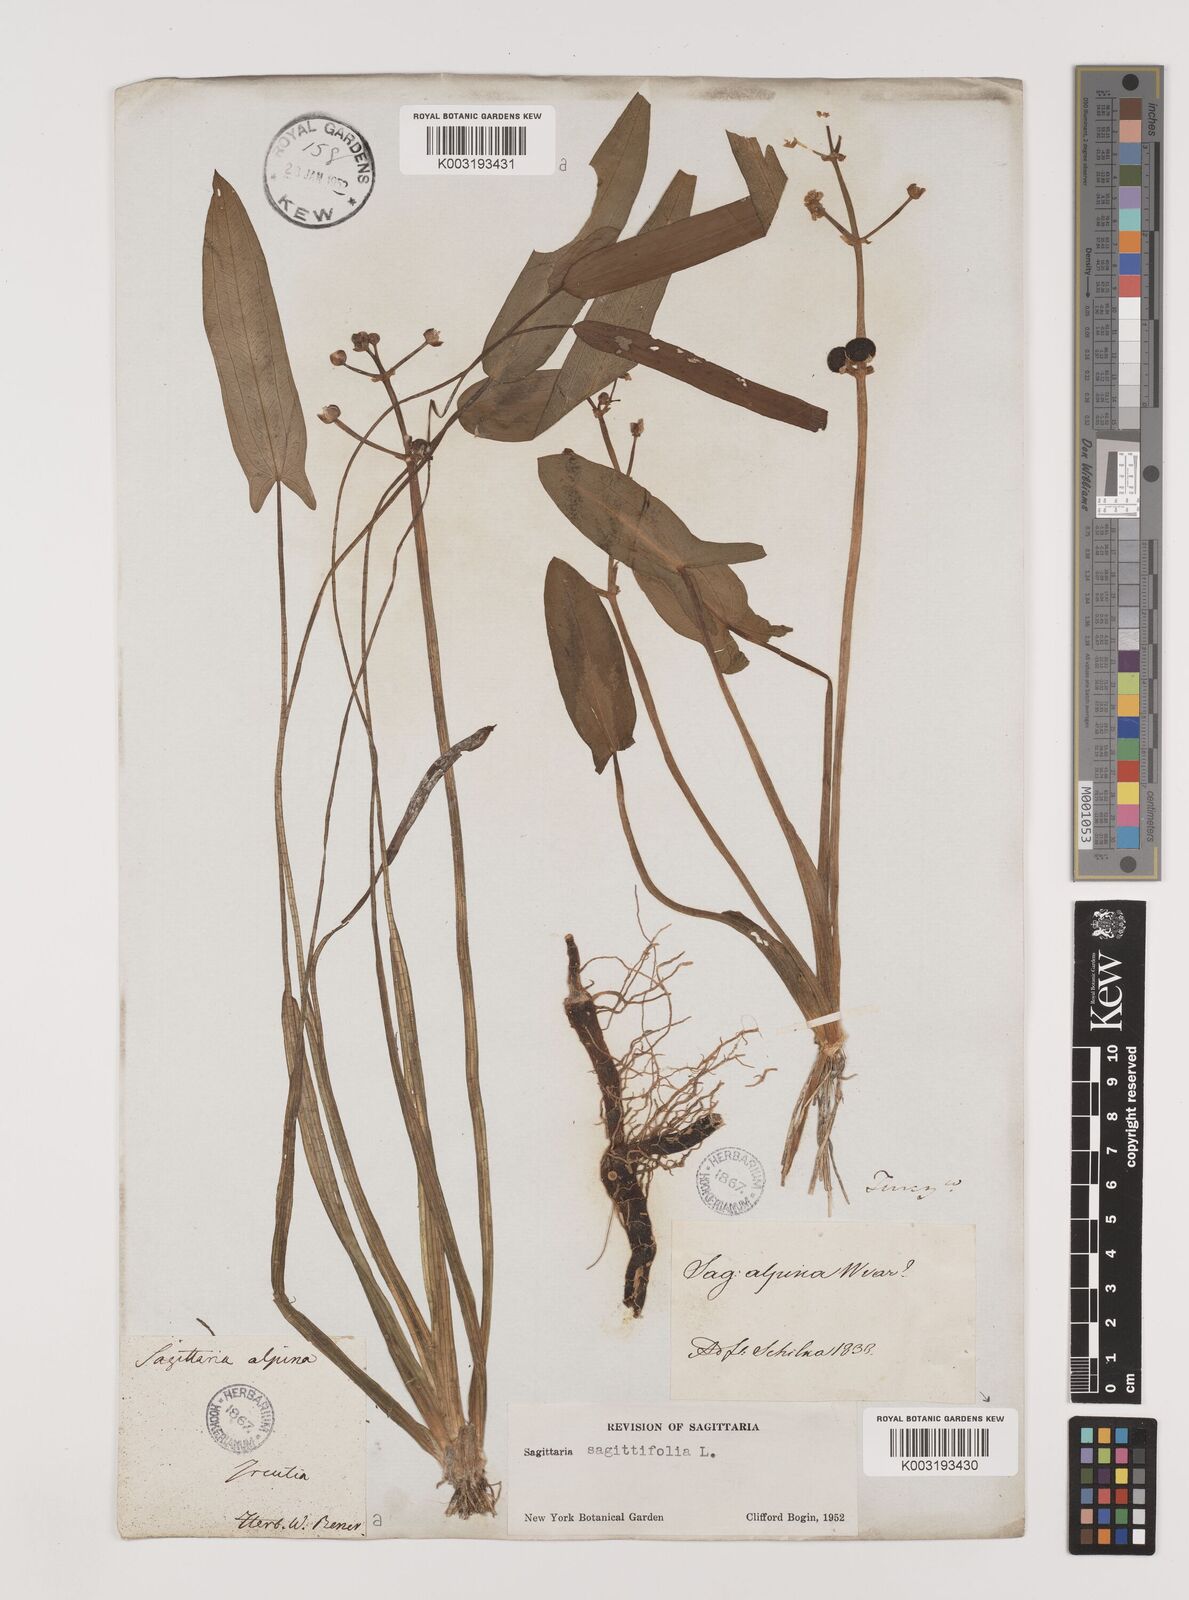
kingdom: Plantae
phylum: Tracheophyta
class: Liliopsida
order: Alismatales
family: Alismataceae
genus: Sagittaria
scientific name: Sagittaria natans
